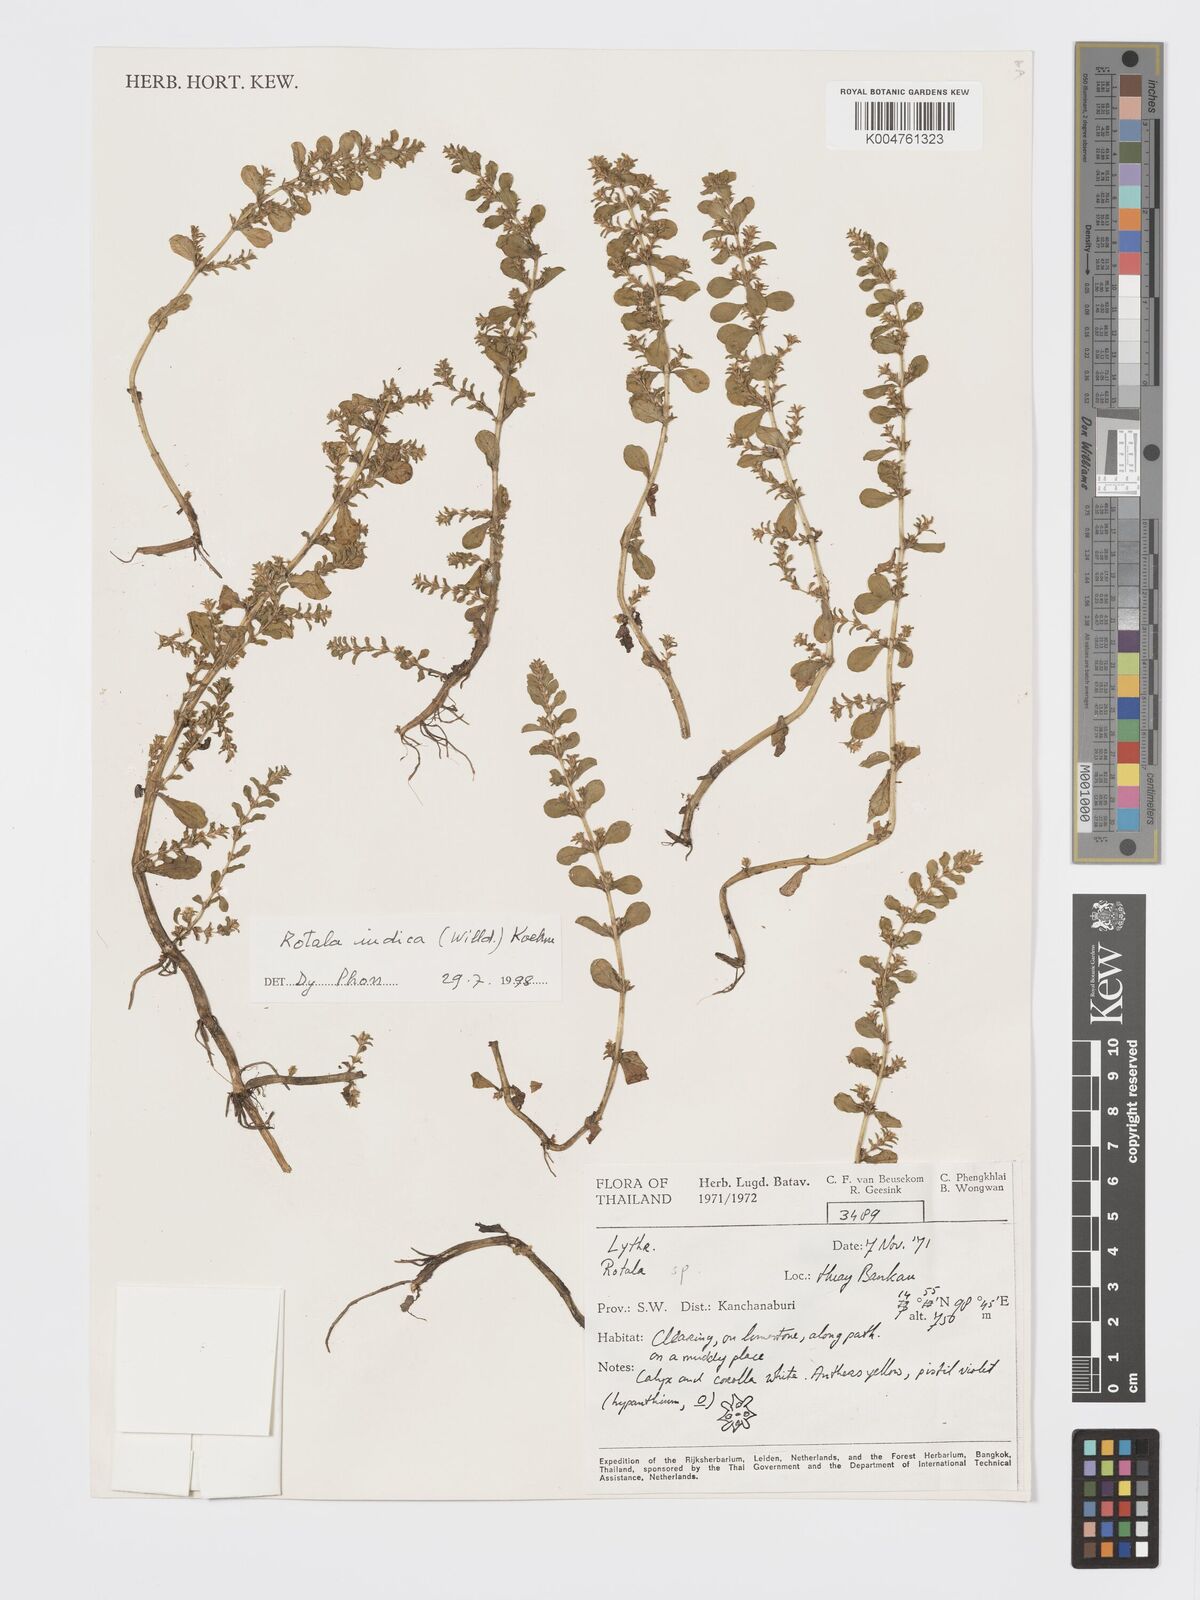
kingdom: Plantae
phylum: Tracheophyta
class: Magnoliopsida
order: Myrtales
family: Lythraceae
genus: Rotala
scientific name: Rotala indica
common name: Indian toothcup
